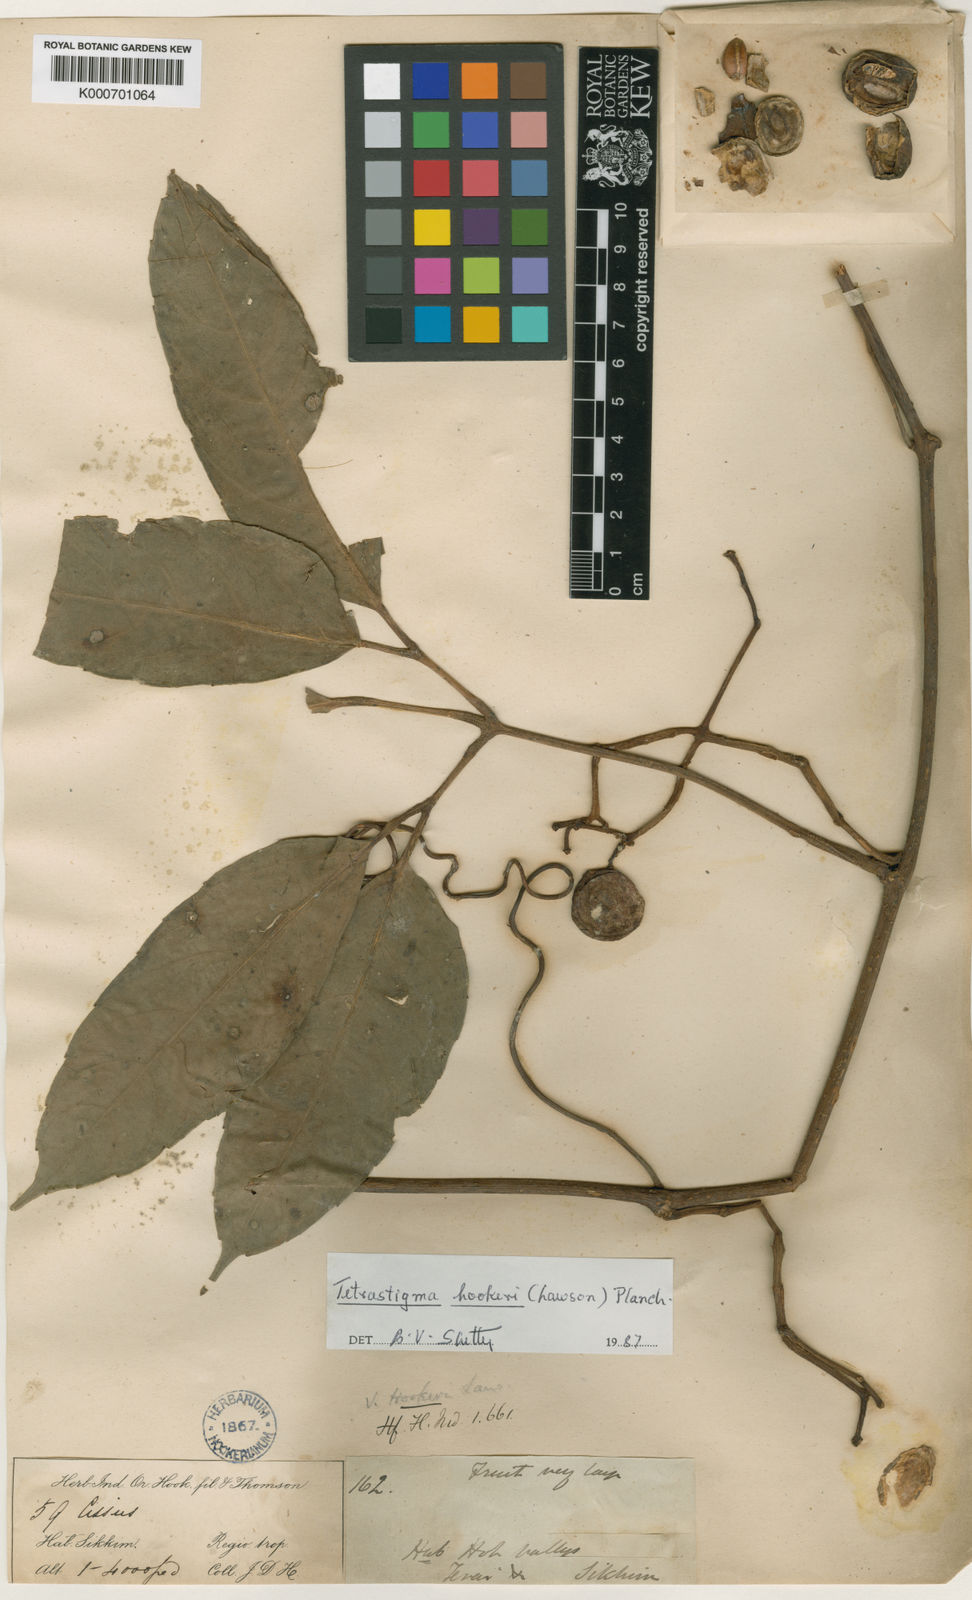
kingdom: Plantae
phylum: Tracheophyta
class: Magnoliopsida
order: Vitales
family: Vitaceae
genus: Tetrastigma
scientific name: Tetrastigma hookeri
